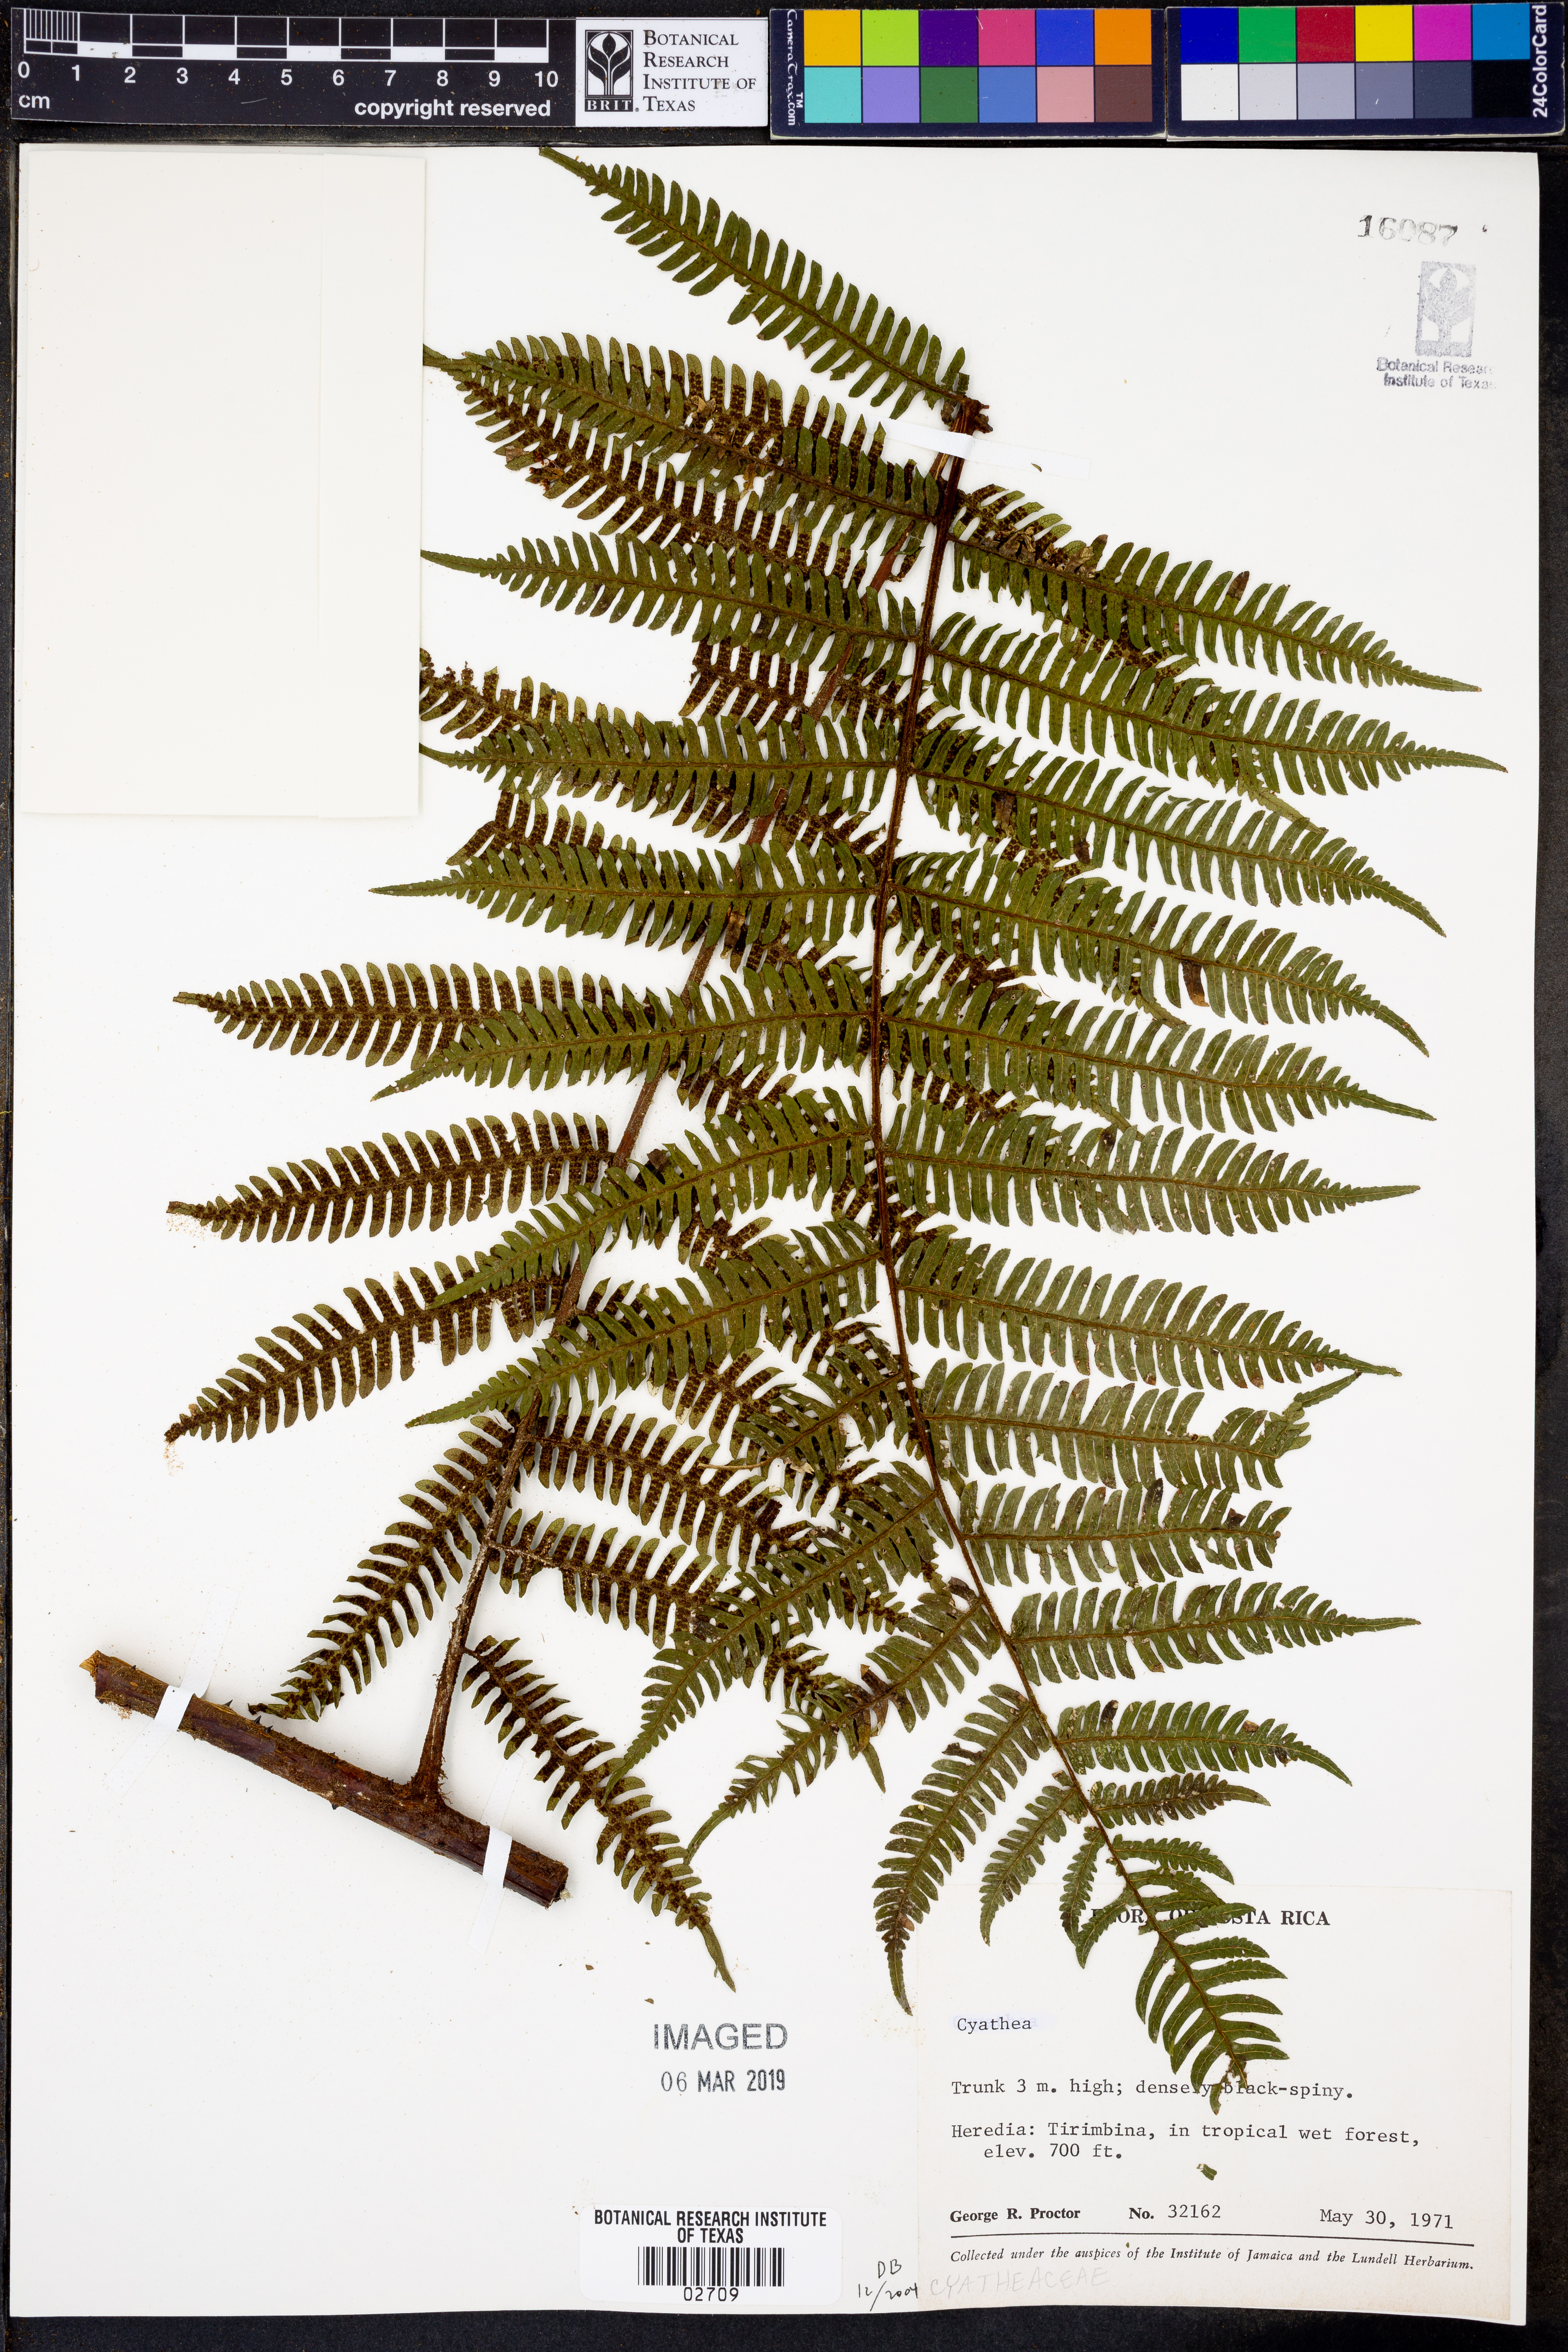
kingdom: Plantae
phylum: Tracheophyta
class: Polypodiopsida
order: Cyatheales
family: Cyatheaceae
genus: Cyathea
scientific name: Cyathea
